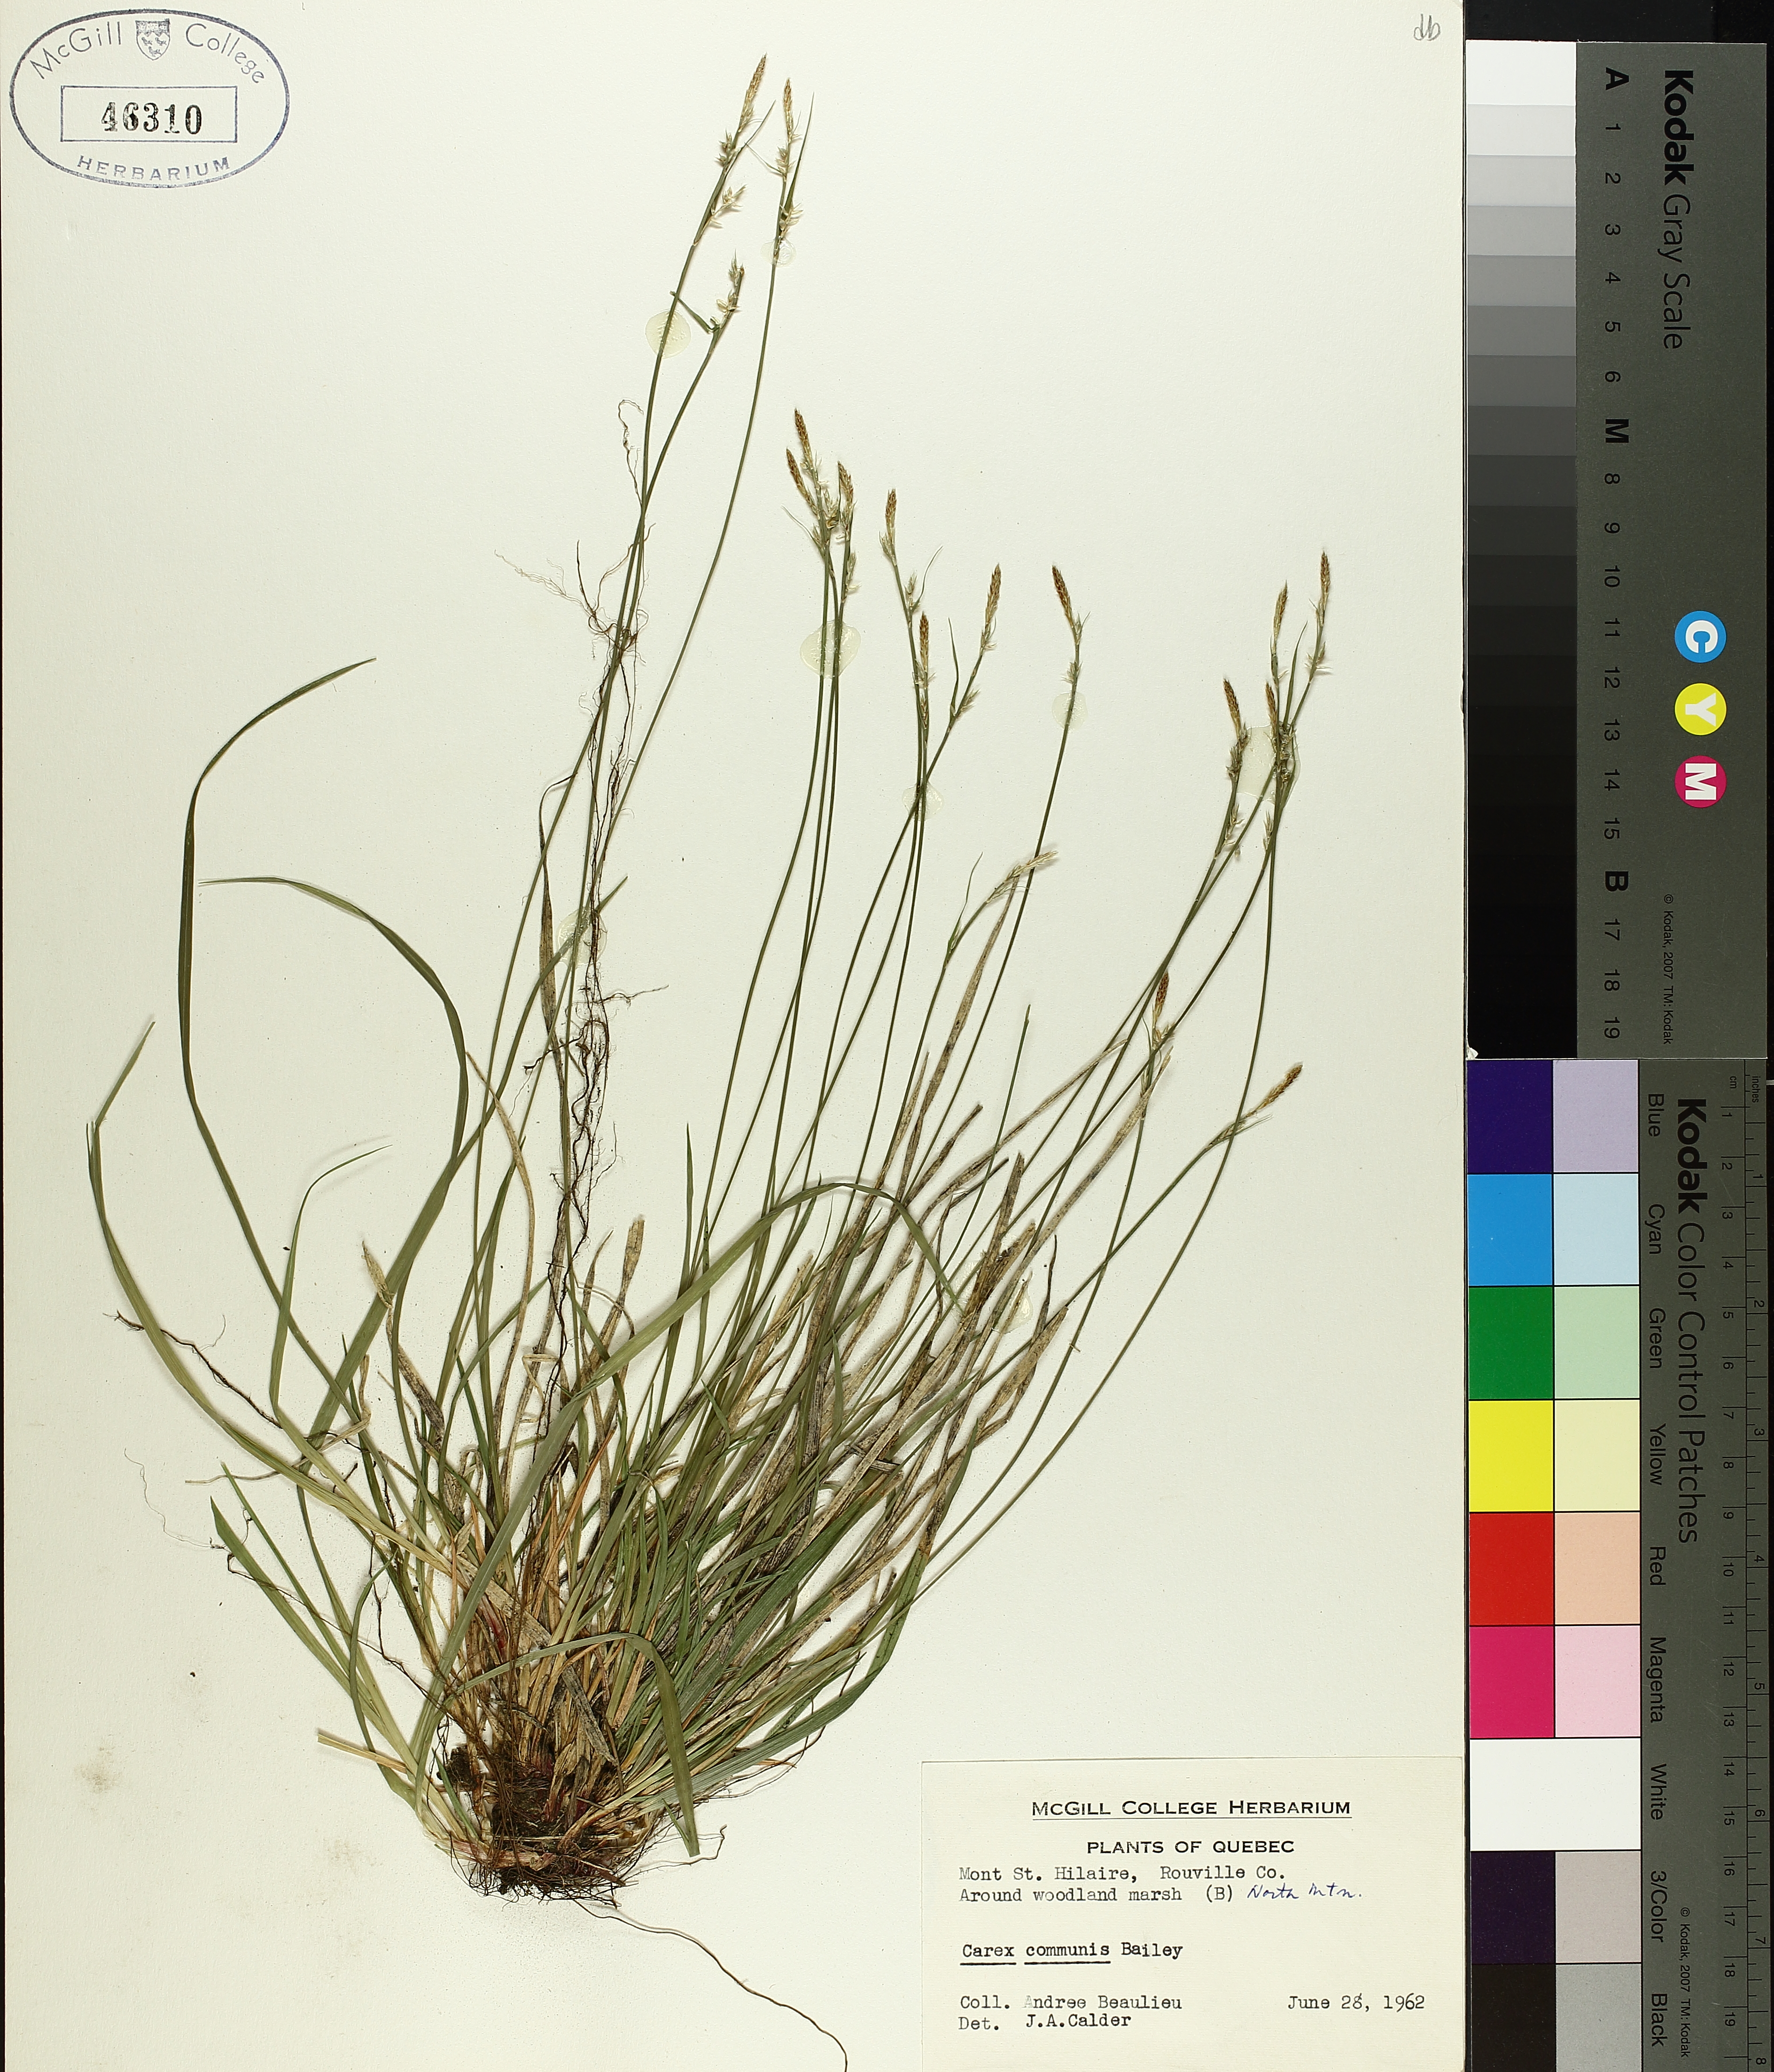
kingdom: Plantae
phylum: Tracheophyta
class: Liliopsida
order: Poales
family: Cyperaceae
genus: Carex
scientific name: Carex communis
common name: Colonial oak sedge
